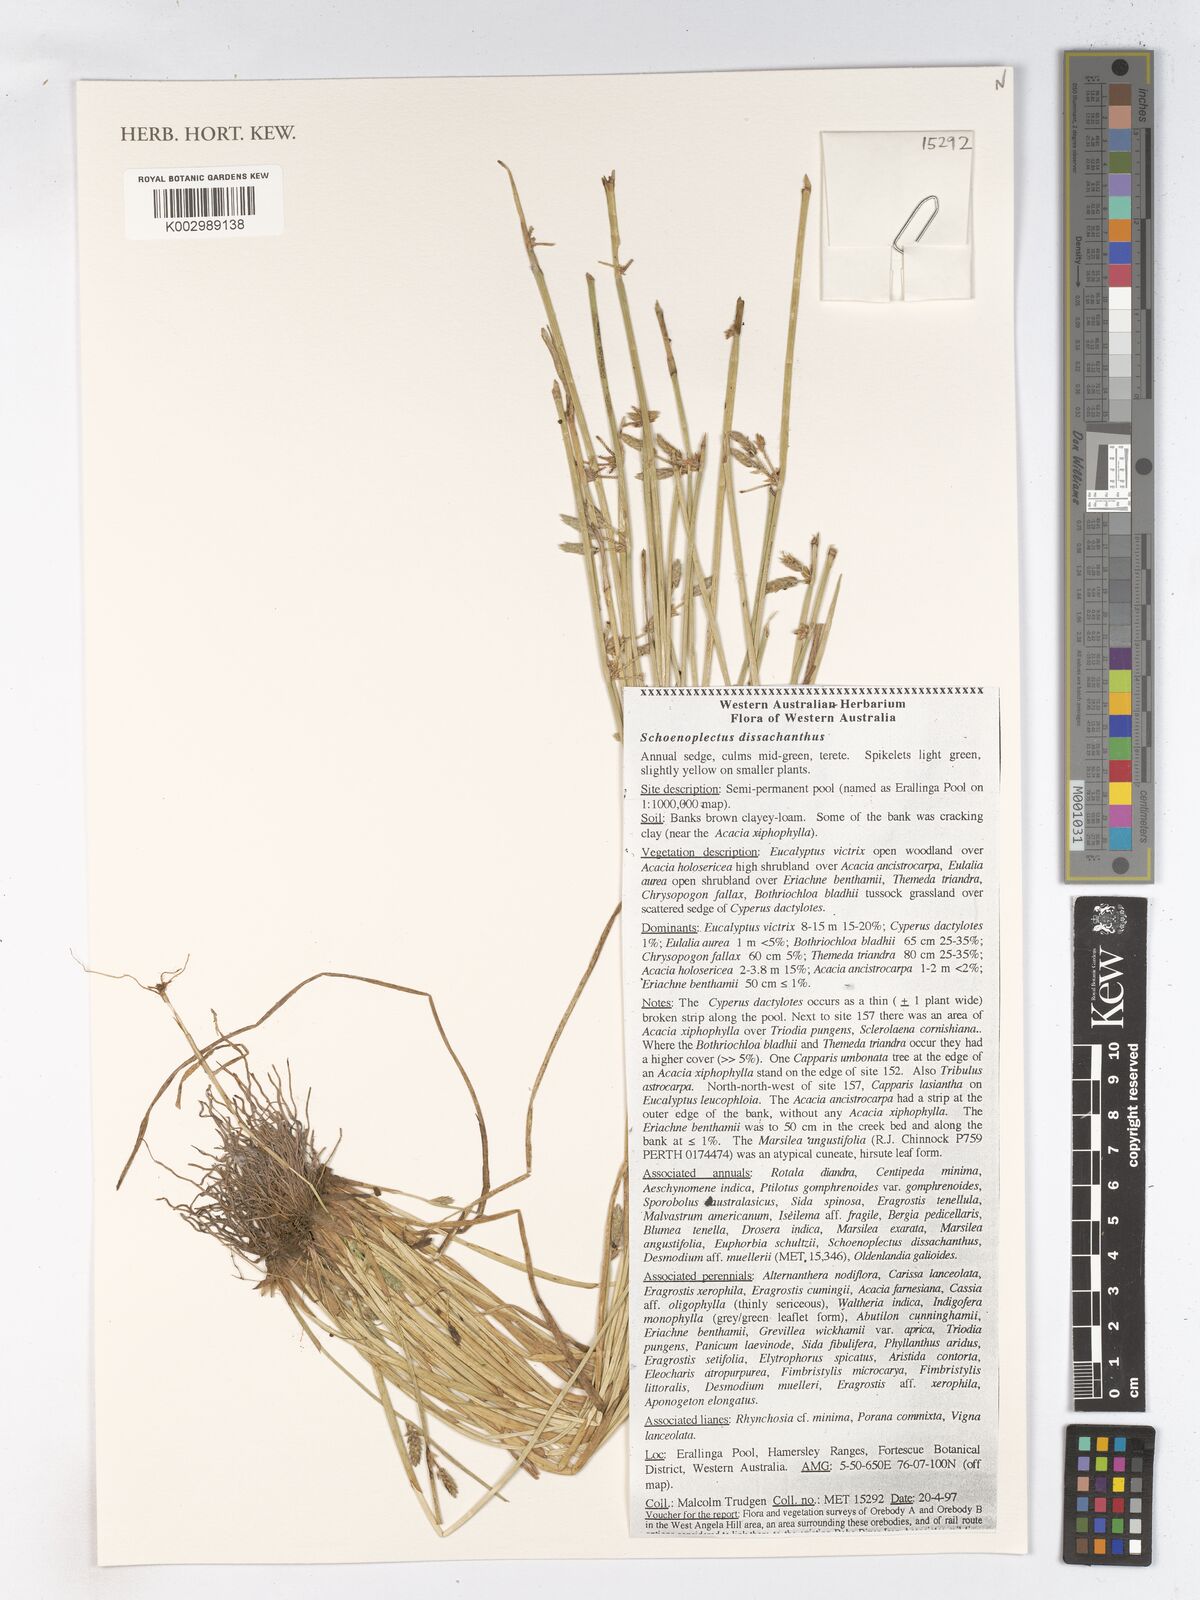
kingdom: Plantae
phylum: Tracheophyta
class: Liliopsida
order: Poales
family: Cyperaceae
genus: Schoenoplectiella
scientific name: Schoenoplectiella dissachantha
